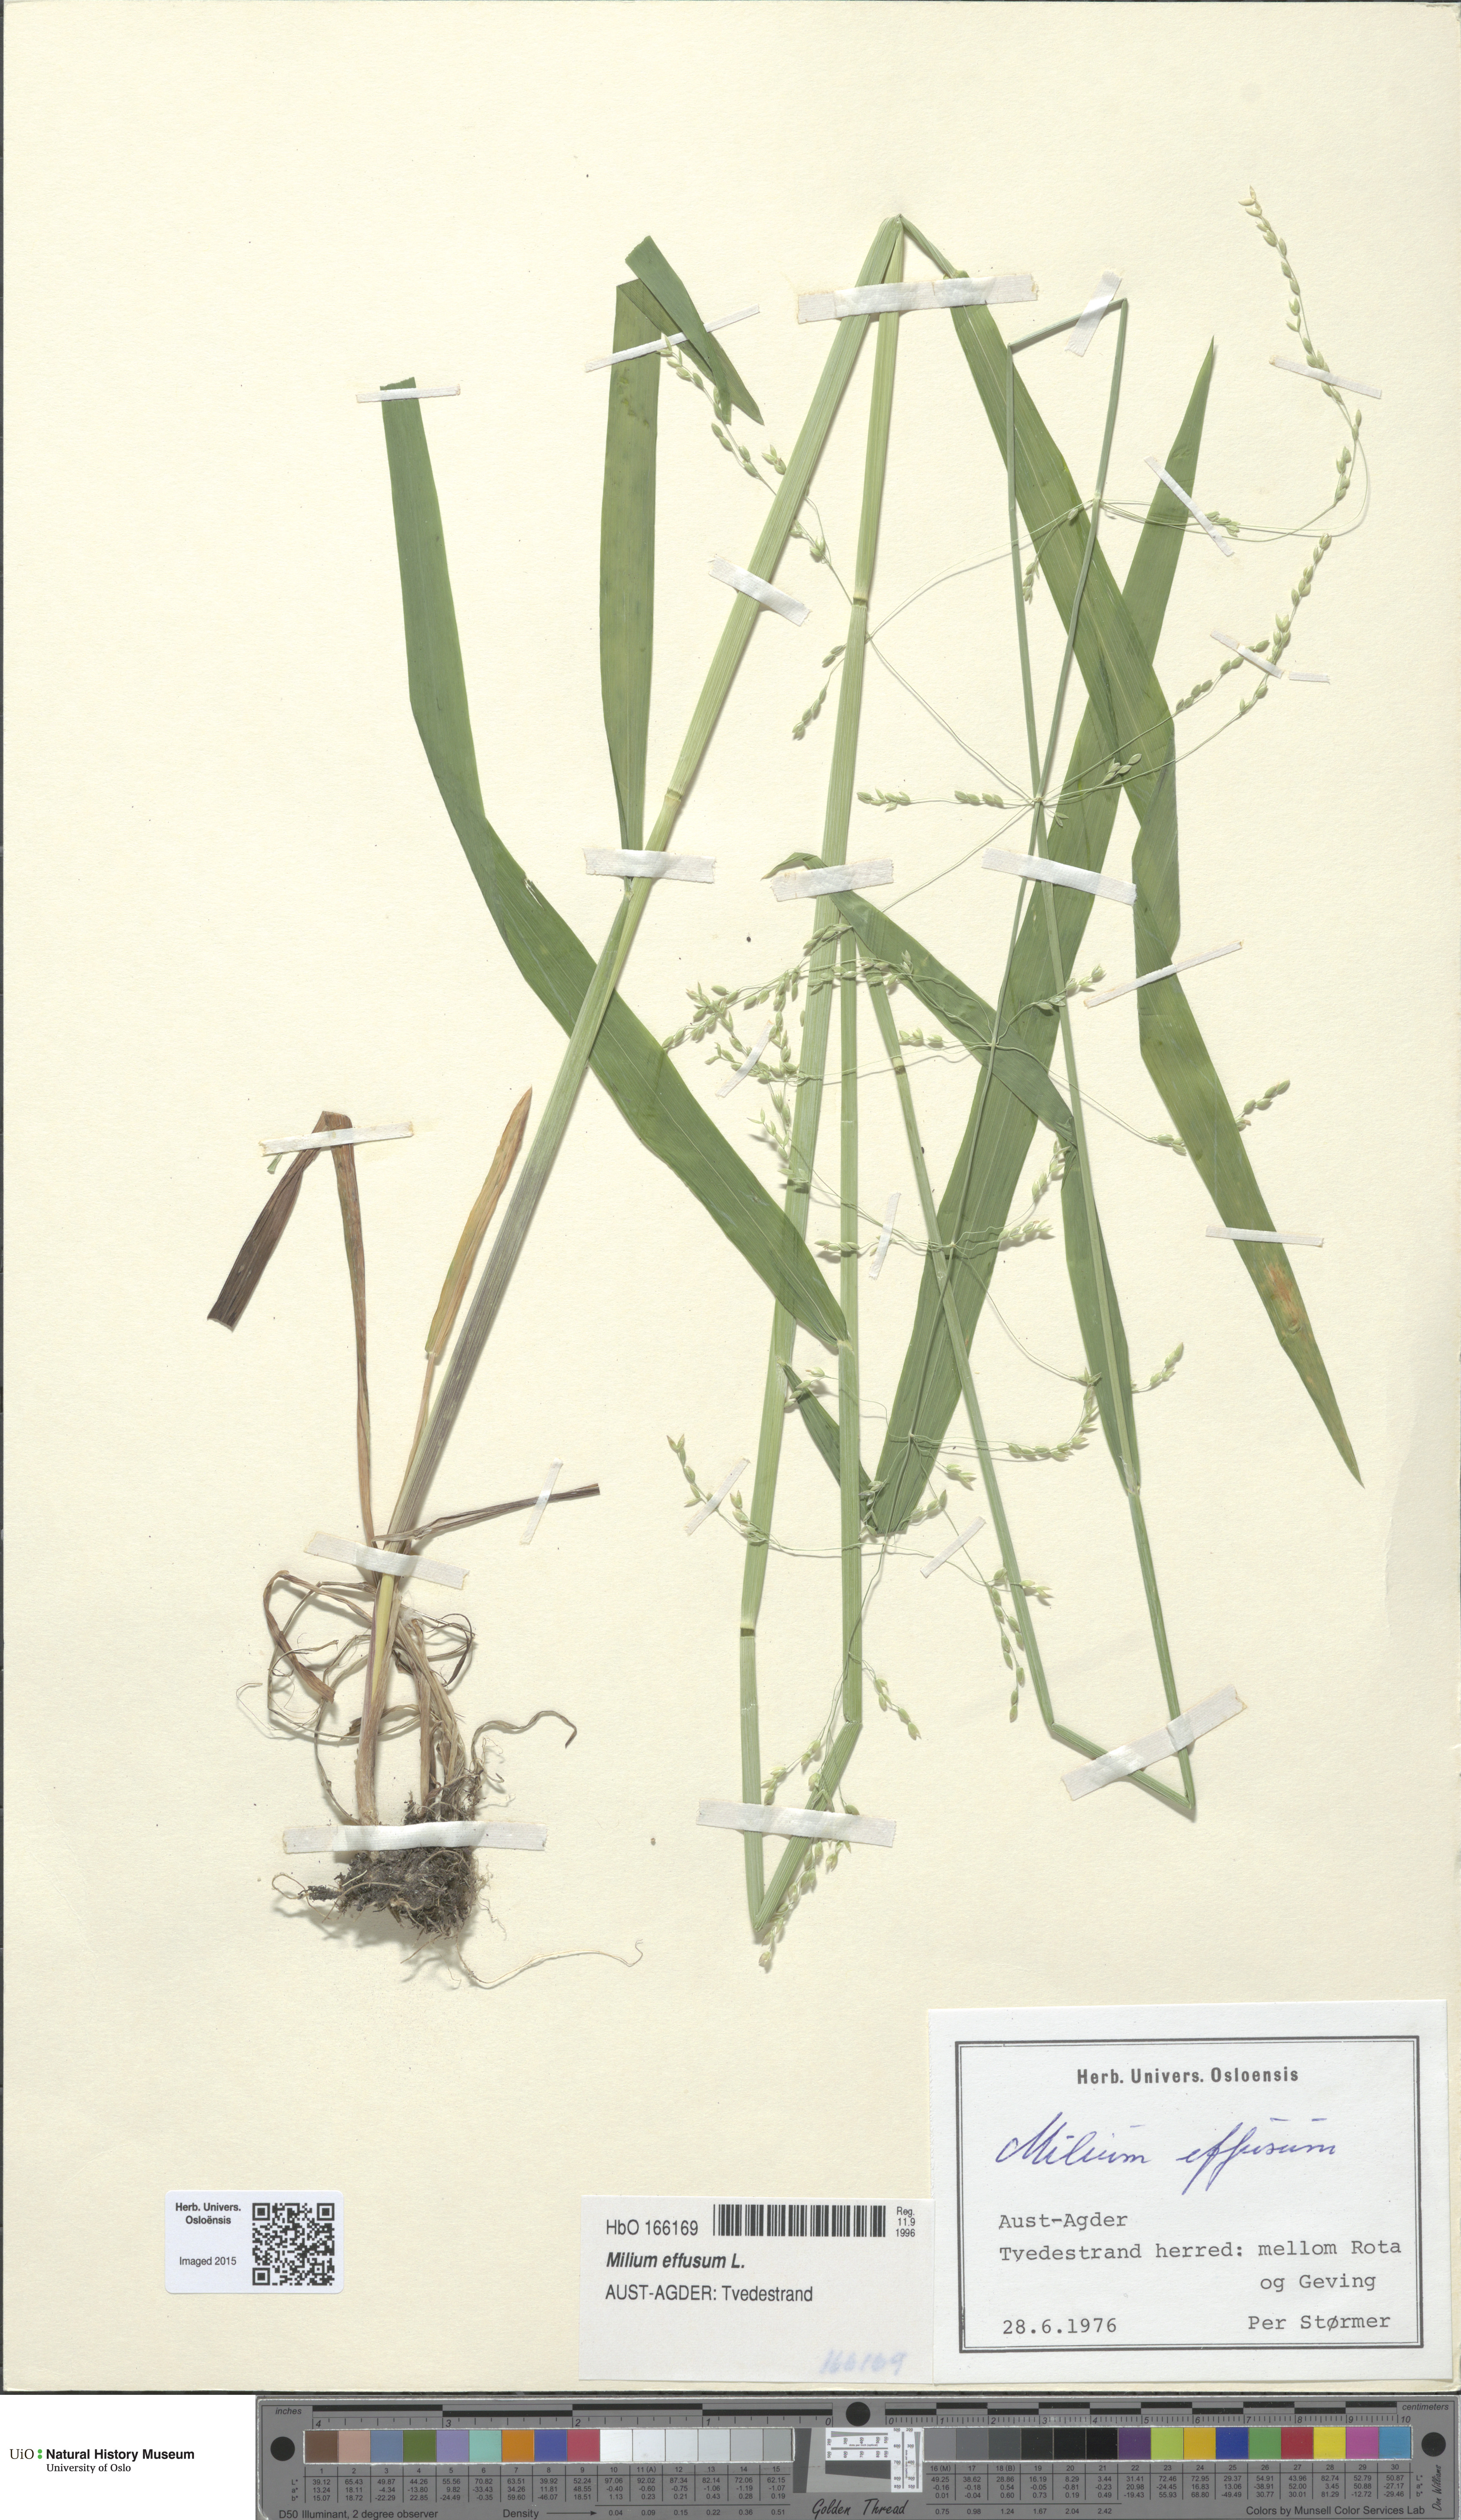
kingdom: Plantae
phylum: Tracheophyta
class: Liliopsida
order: Poales
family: Poaceae
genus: Milium
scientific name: Milium effusum
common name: Wood millet
